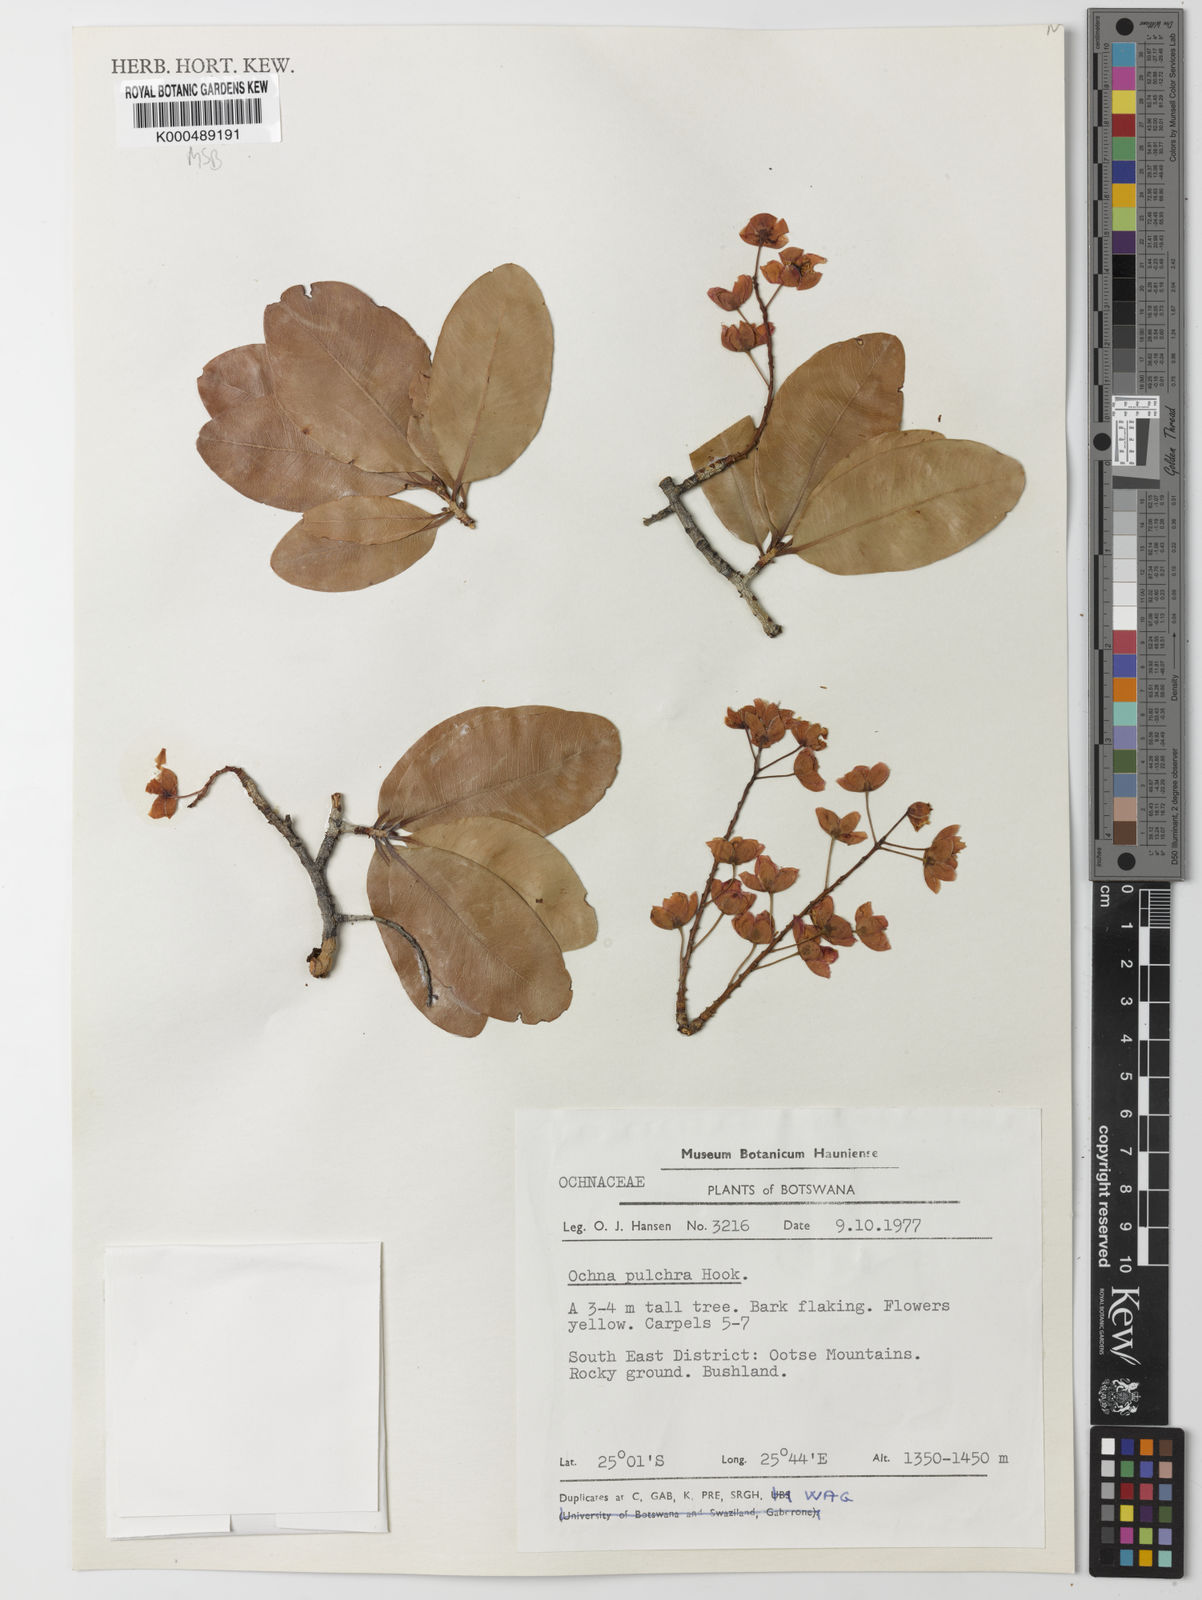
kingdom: Plantae
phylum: Tracheophyta
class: Magnoliopsida
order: Malpighiales
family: Ochnaceae
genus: Ochna
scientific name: Ochna pulchra
